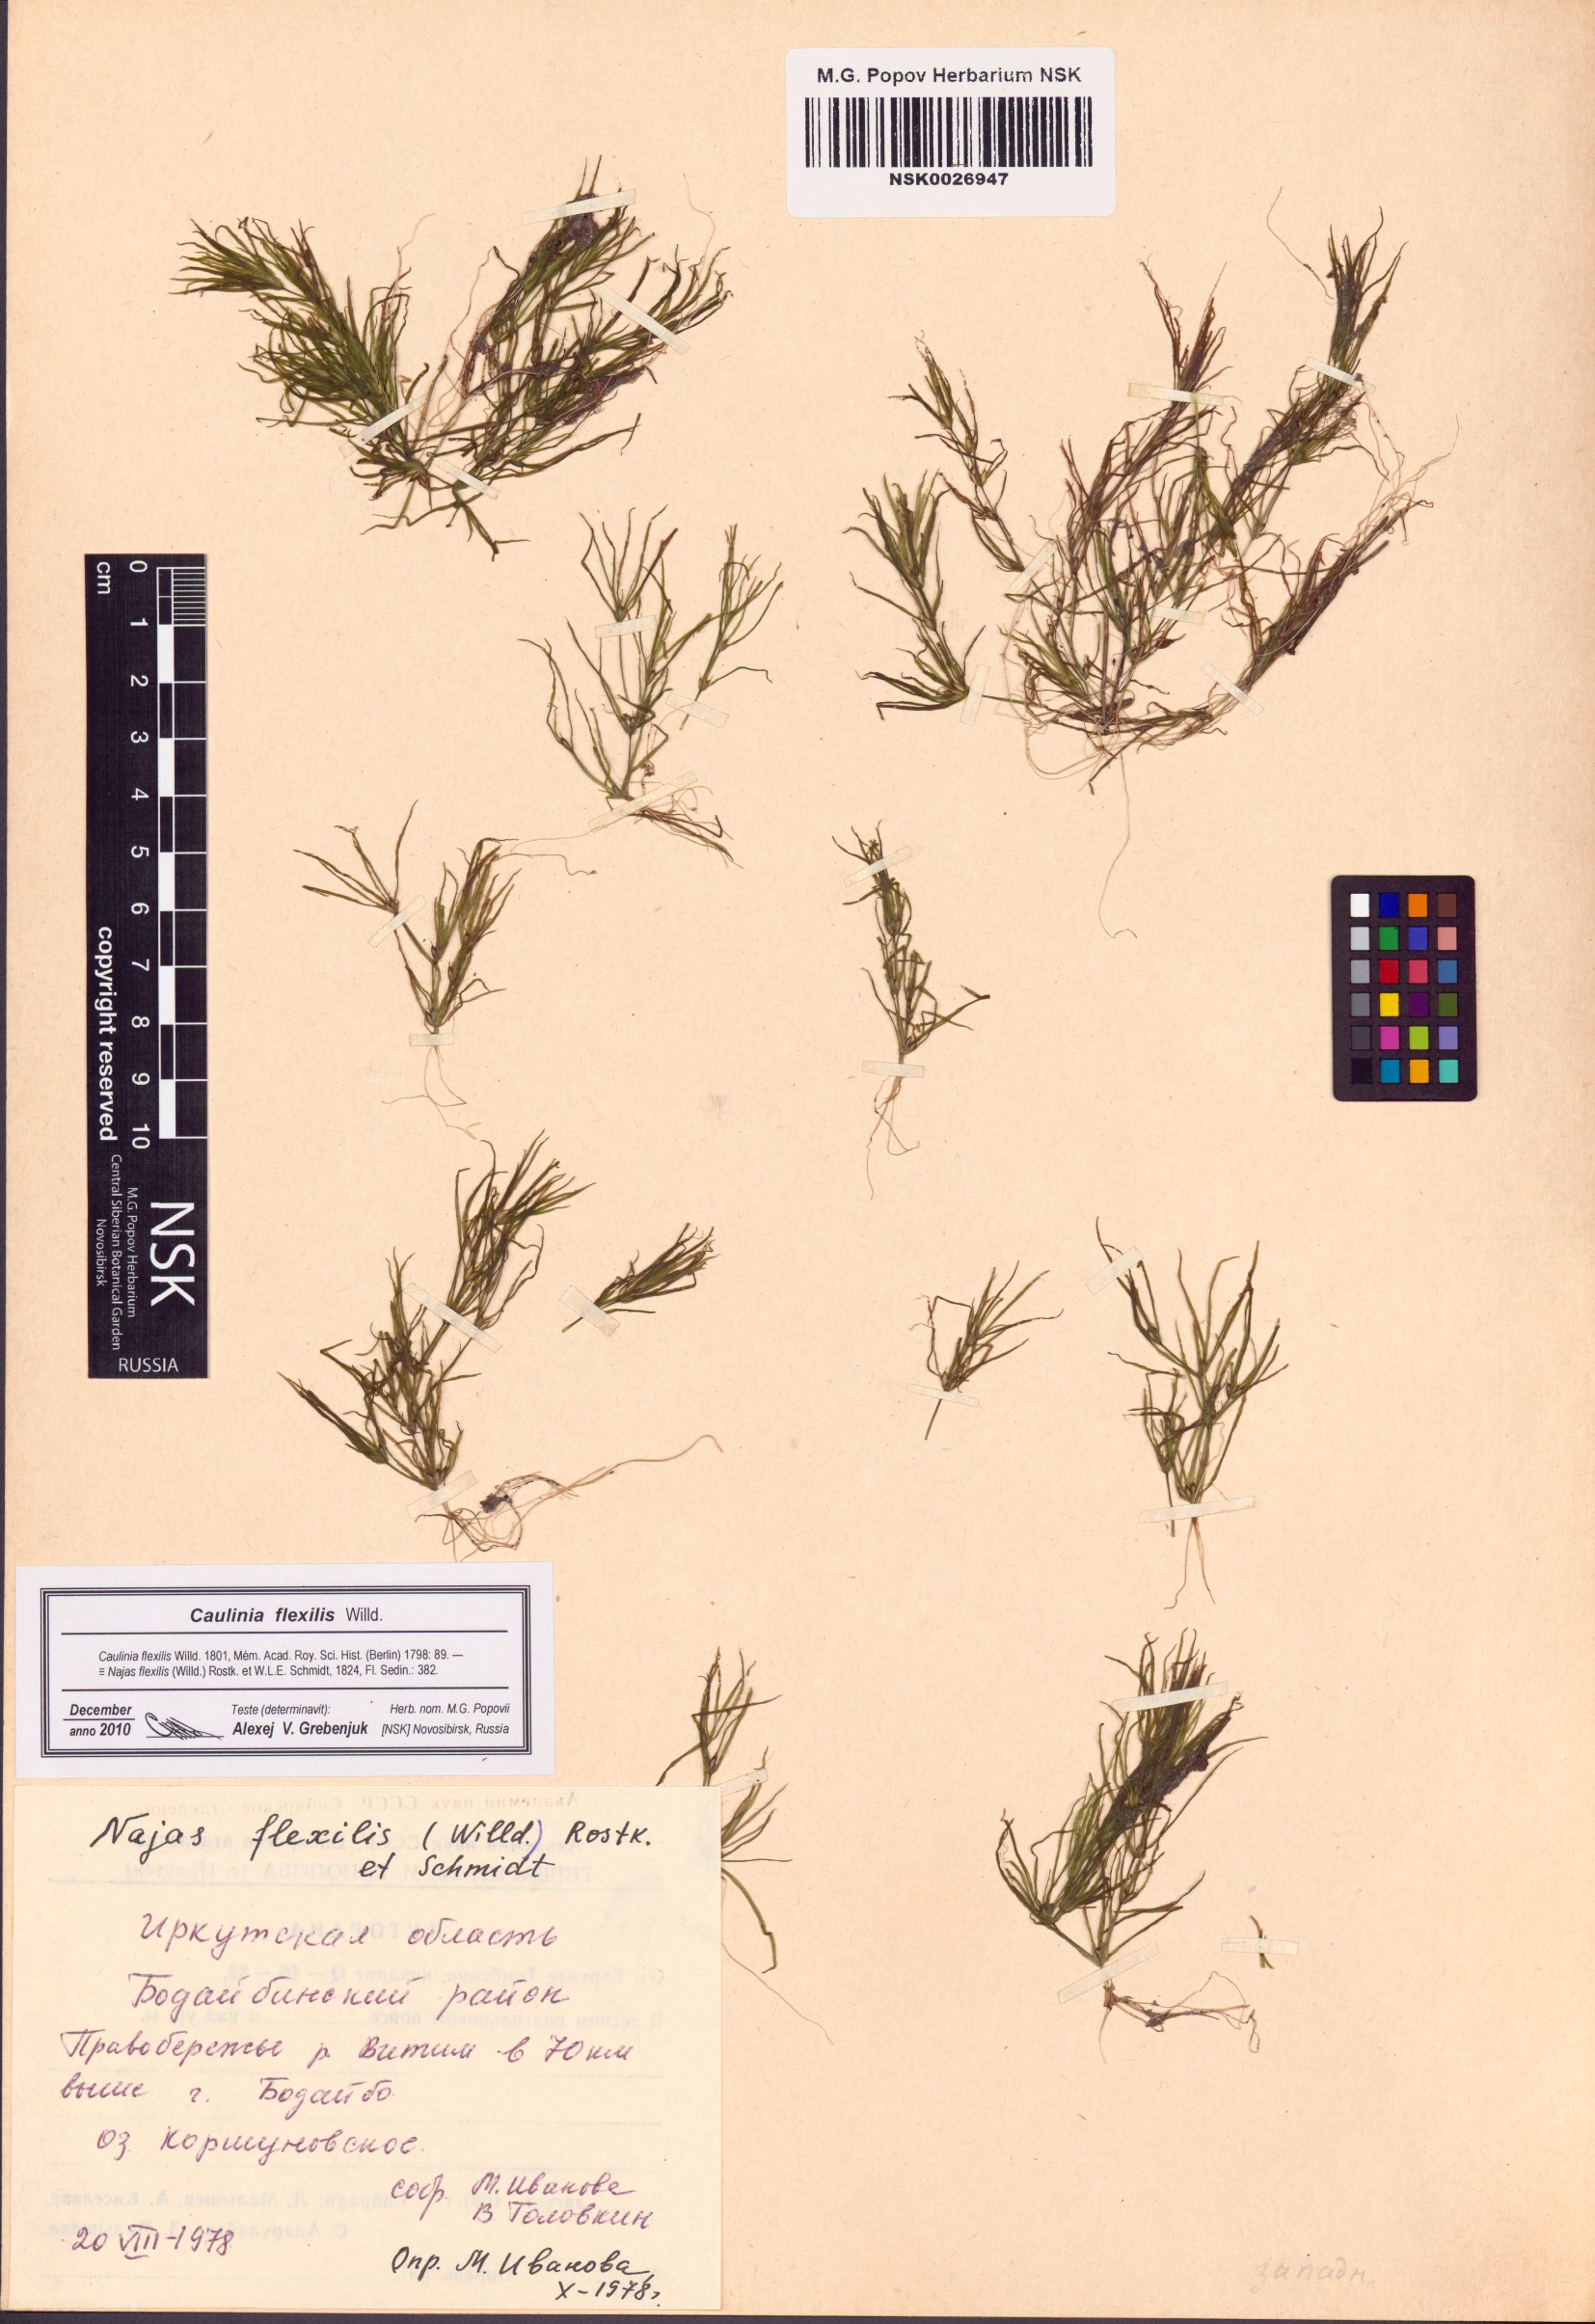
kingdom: Plantae
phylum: Tracheophyta
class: Liliopsida
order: Alismatales
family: Hydrocharitaceae
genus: Najas
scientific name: Najas flexilis
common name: Slender naiad
